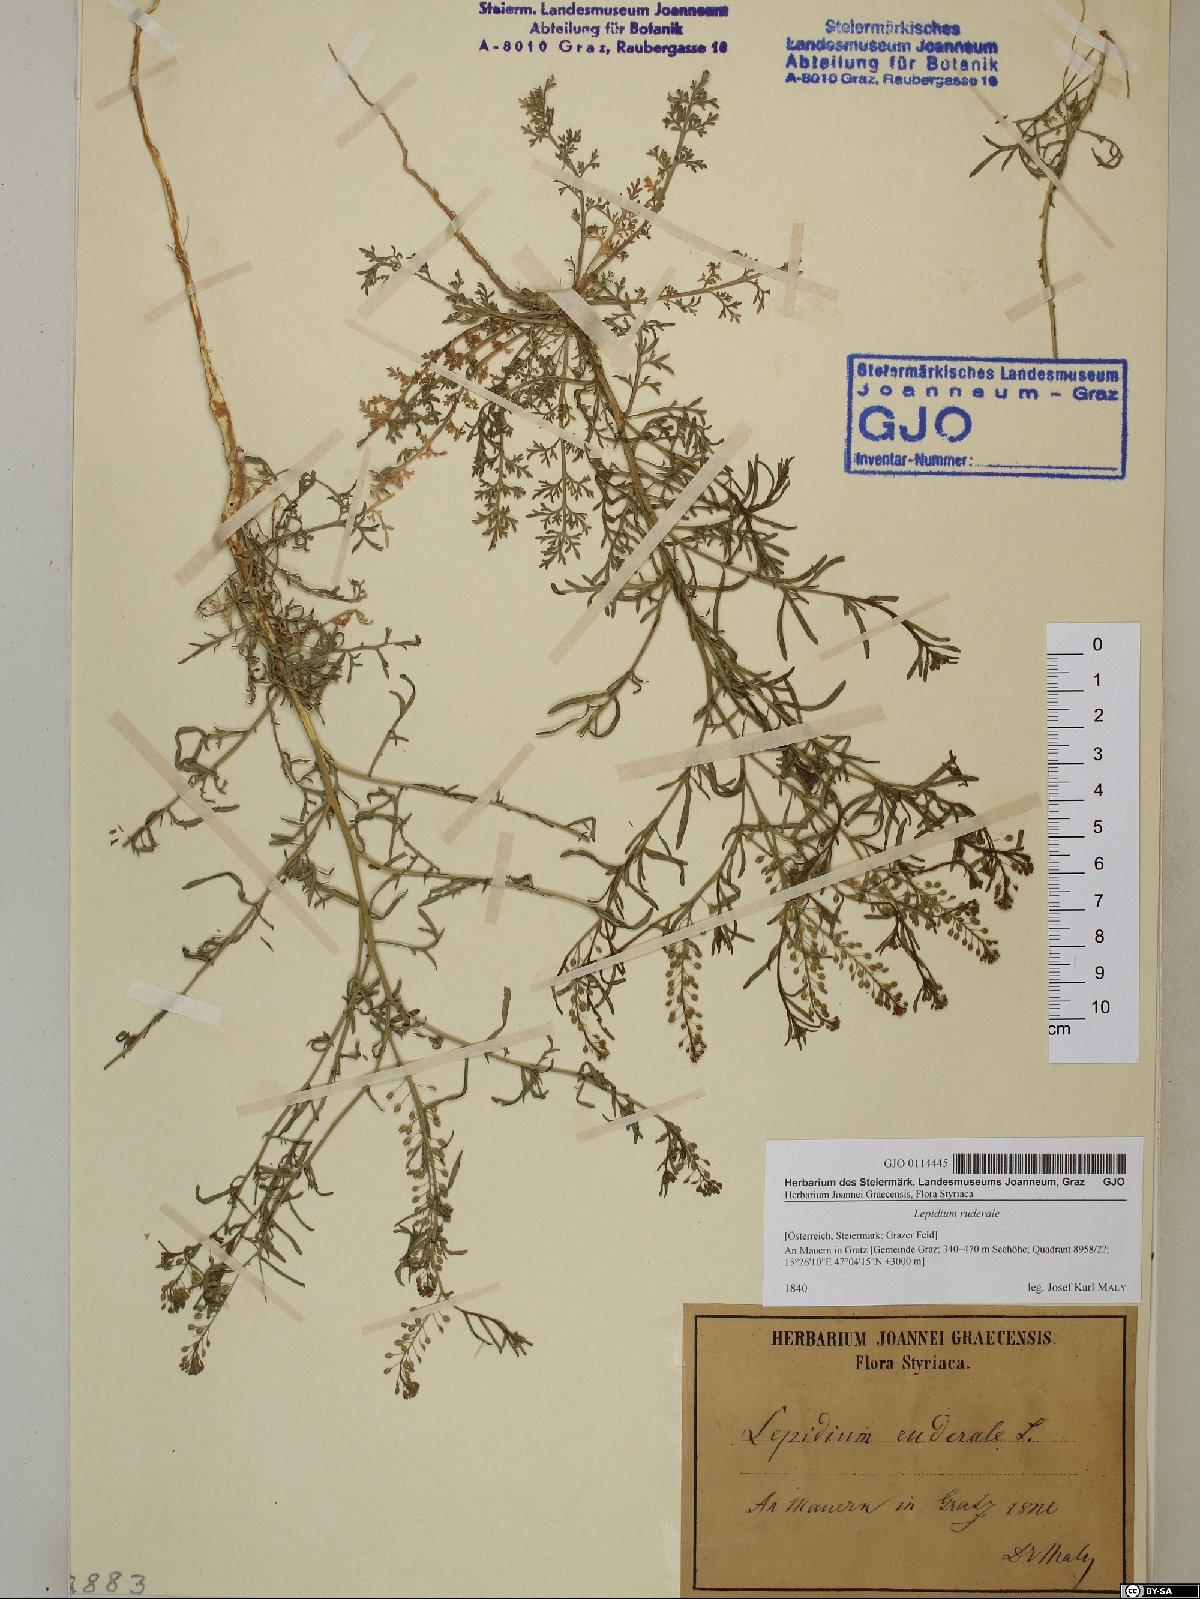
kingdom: Plantae
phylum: Tracheophyta
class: Magnoliopsida
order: Brassicales
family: Brassicaceae
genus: Lepidium
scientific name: Lepidium ruderale
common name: Narrow-leaved pepperwort
